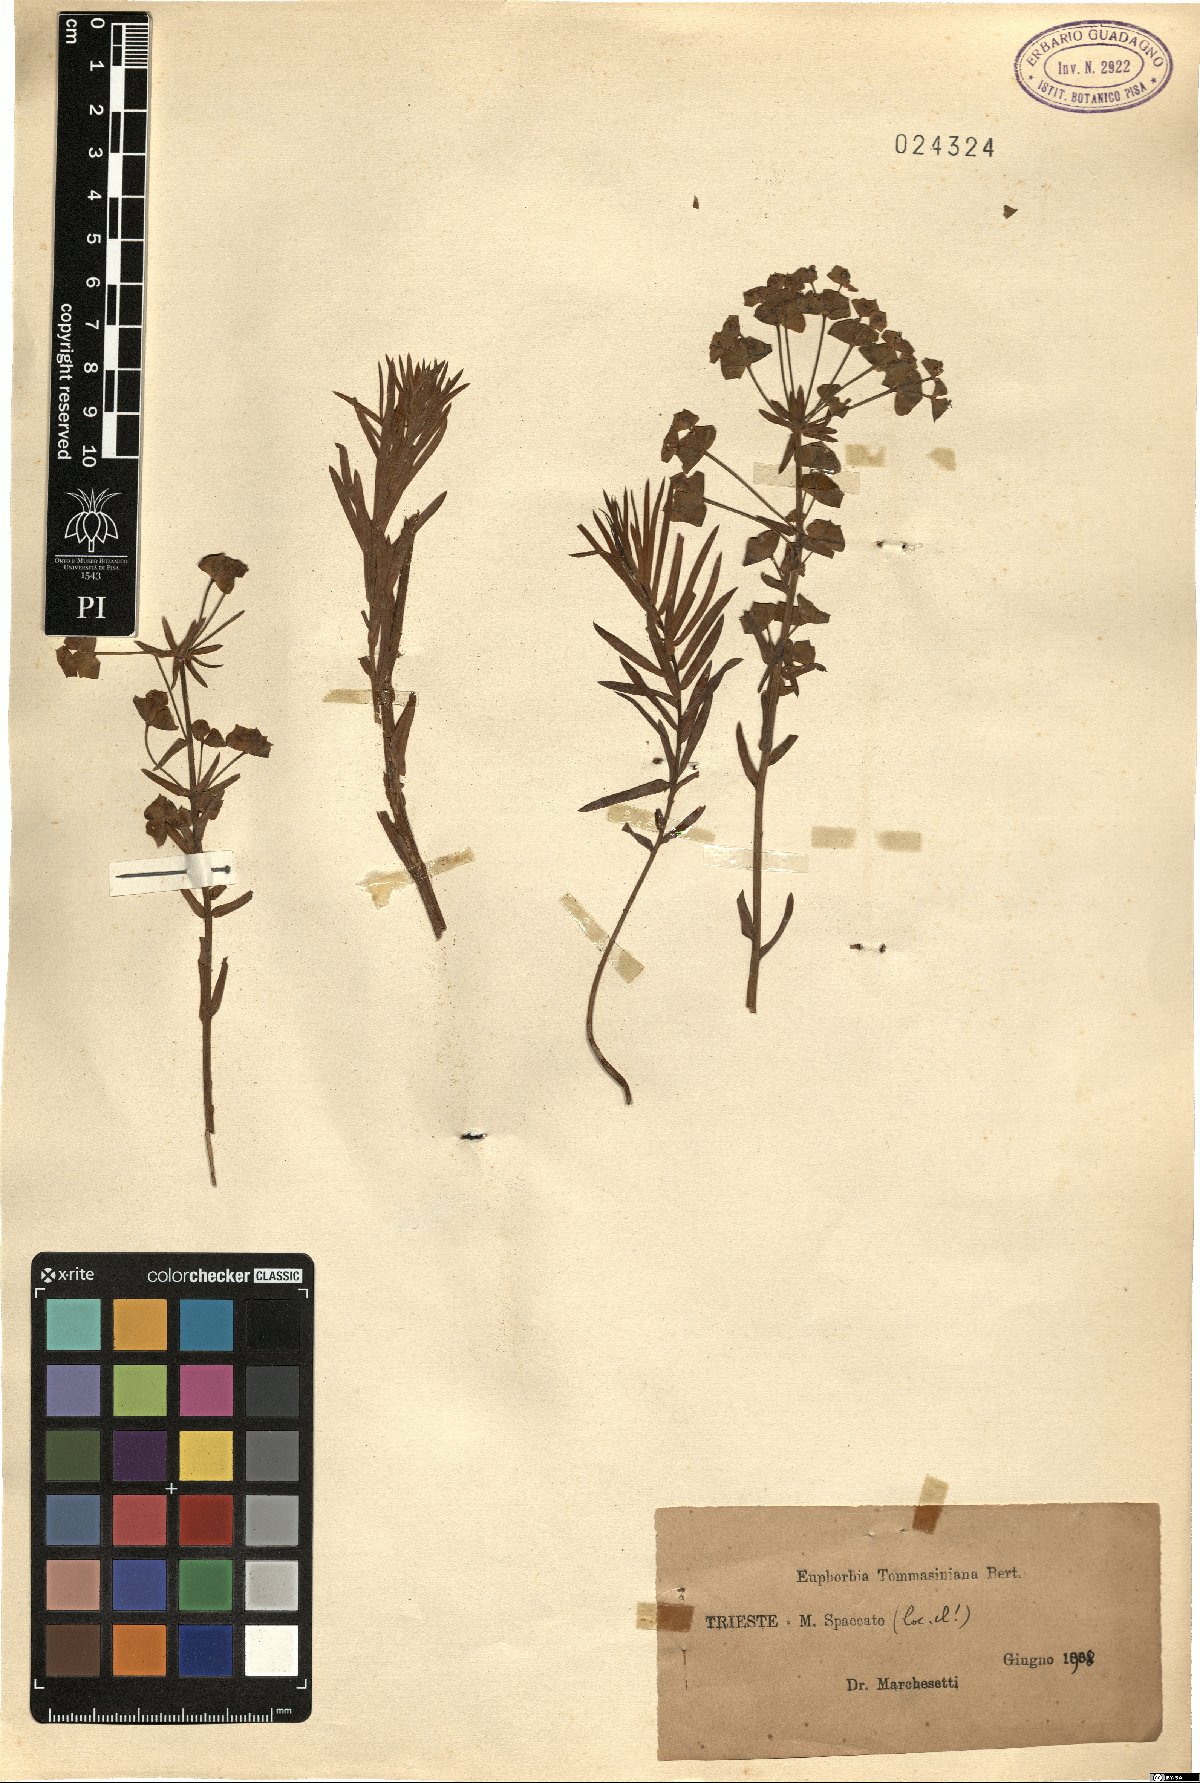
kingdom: Plantae
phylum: Tracheophyta
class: Magnoliopsida
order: Malpighiales
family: Euphorbiaceae
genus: Euphorbia
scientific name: Euphorbia tommasiniana
